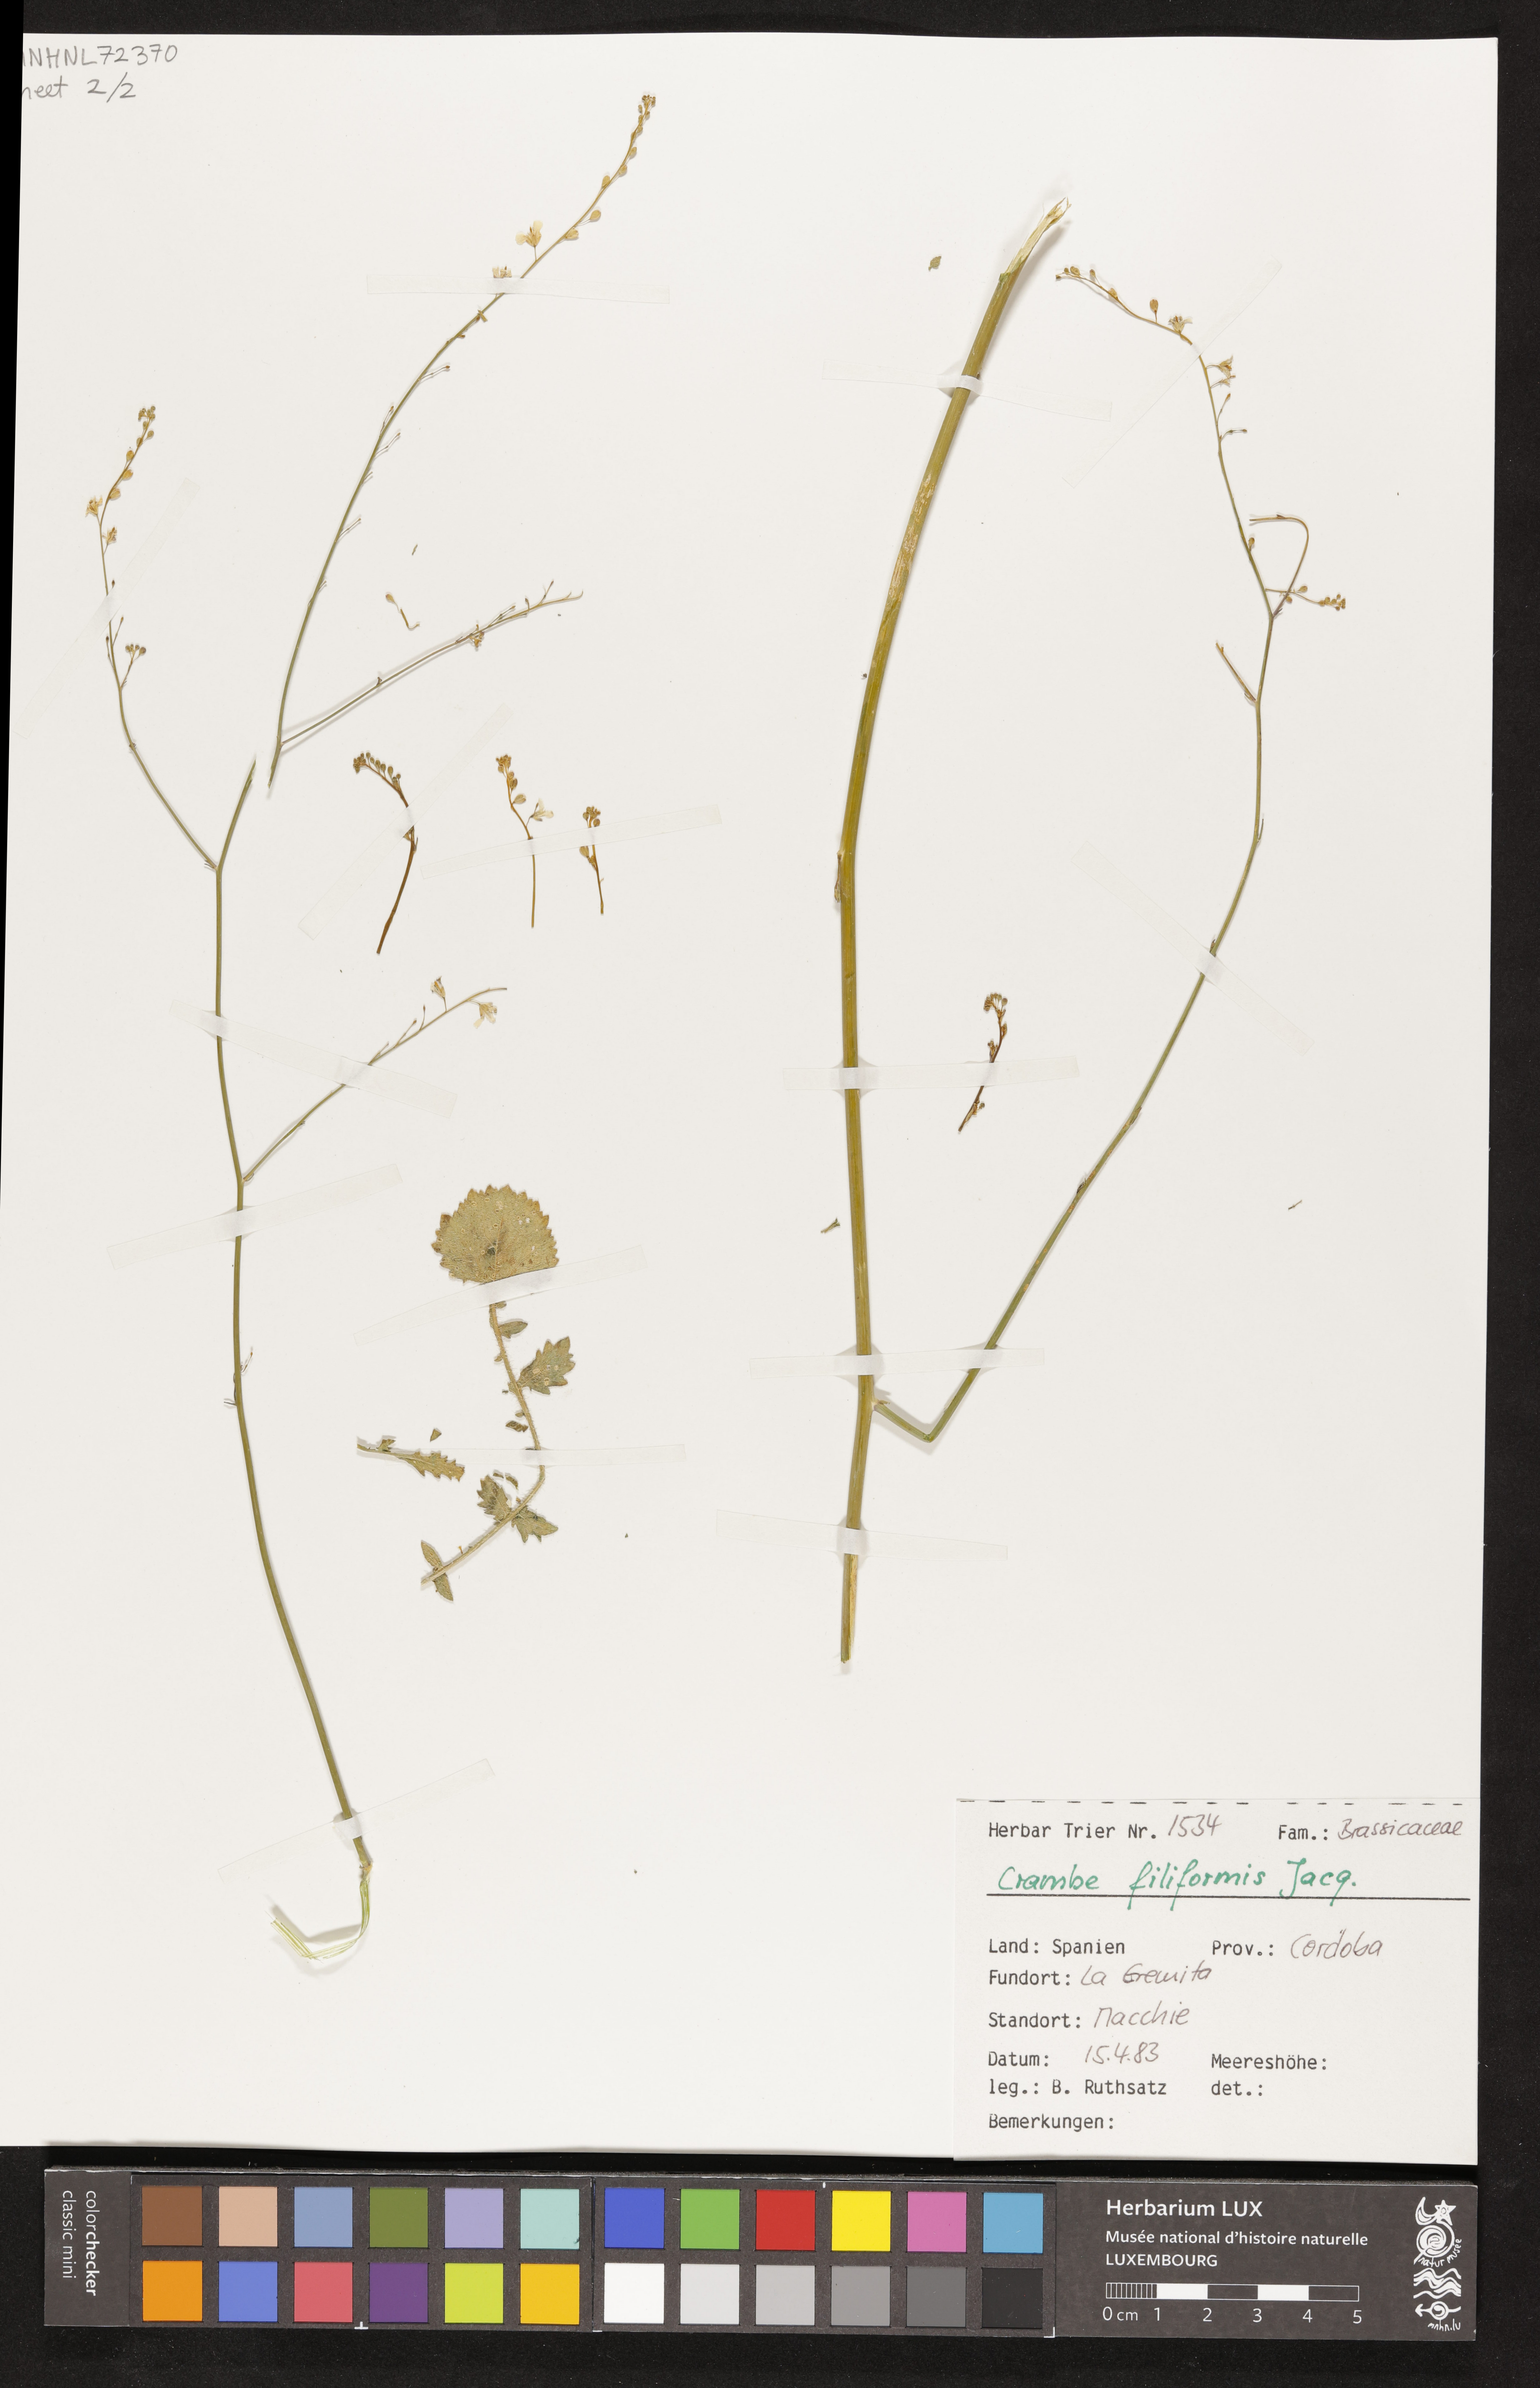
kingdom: Plantae
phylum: Tracheophyta
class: Magnoliopsida
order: Brassicales
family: Brassicaceae
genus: Crambe
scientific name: Crambe filiformis
